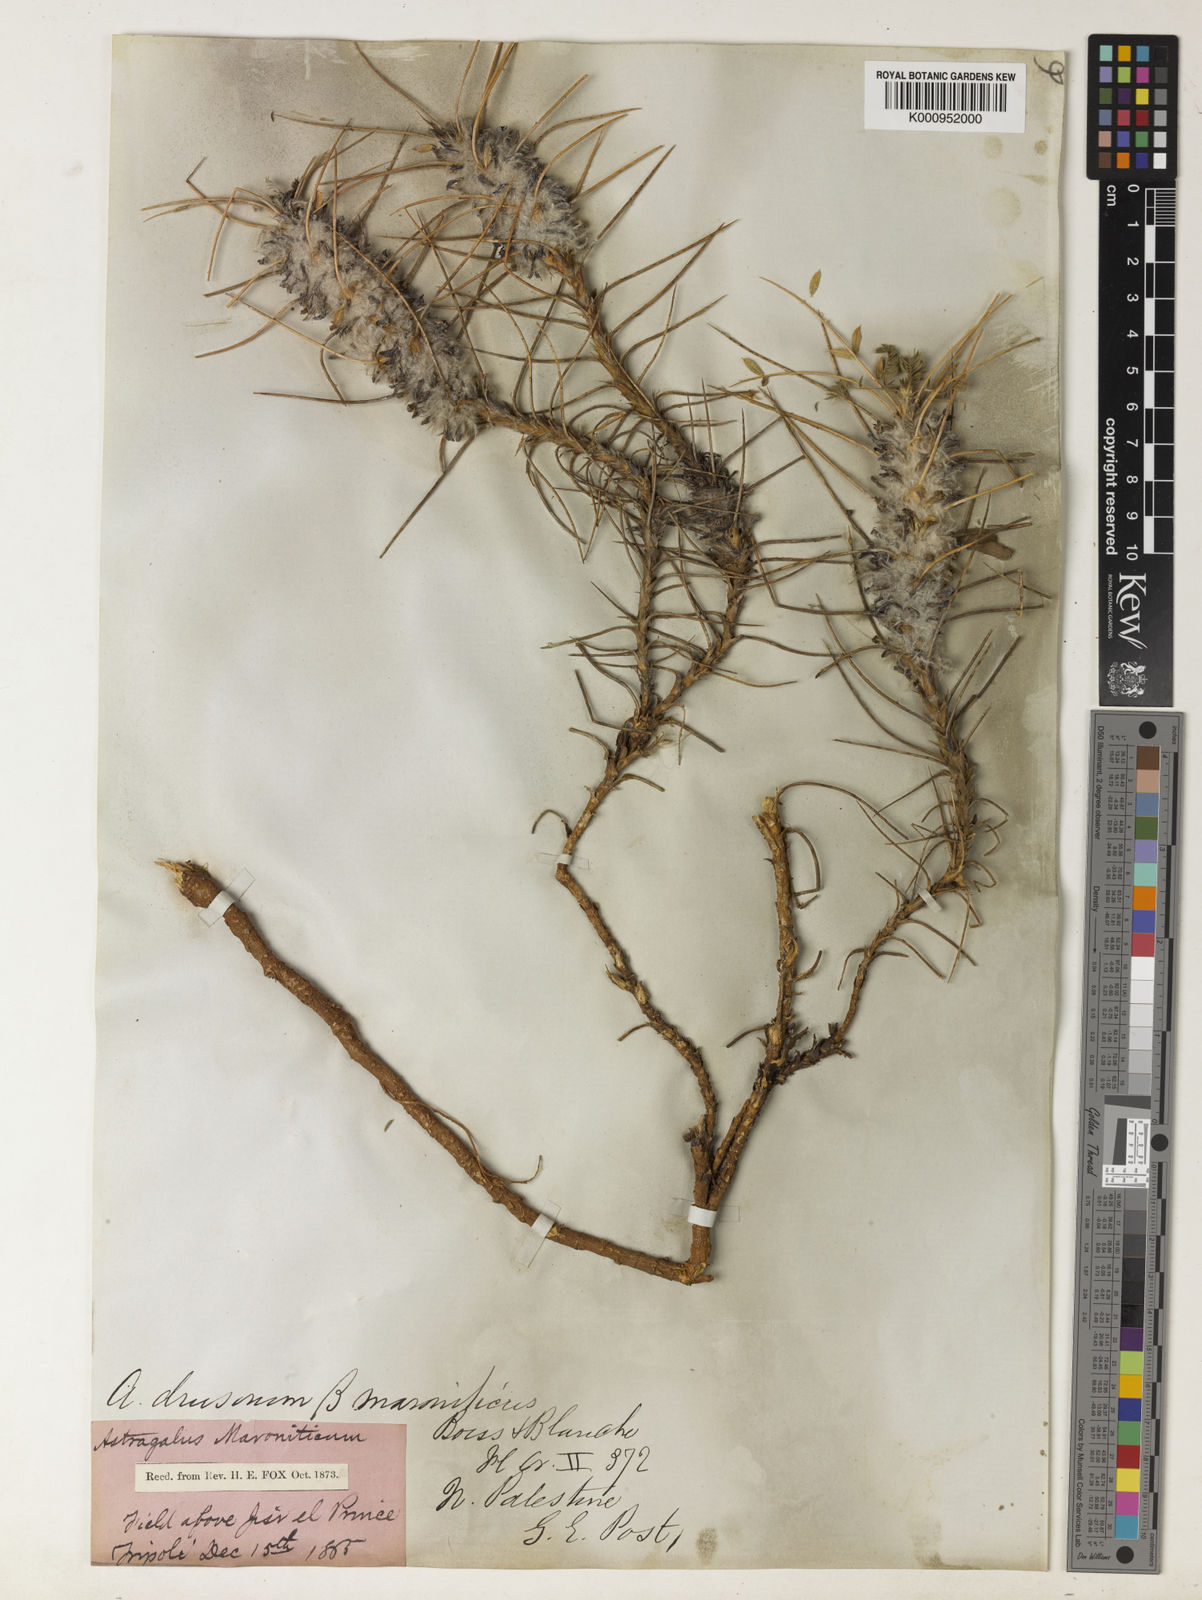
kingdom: Plantae
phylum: Tracheophyta
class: Magnoliopsida
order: Fabales
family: Fabaceae
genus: Astragalus
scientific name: Astragalus drusorum
